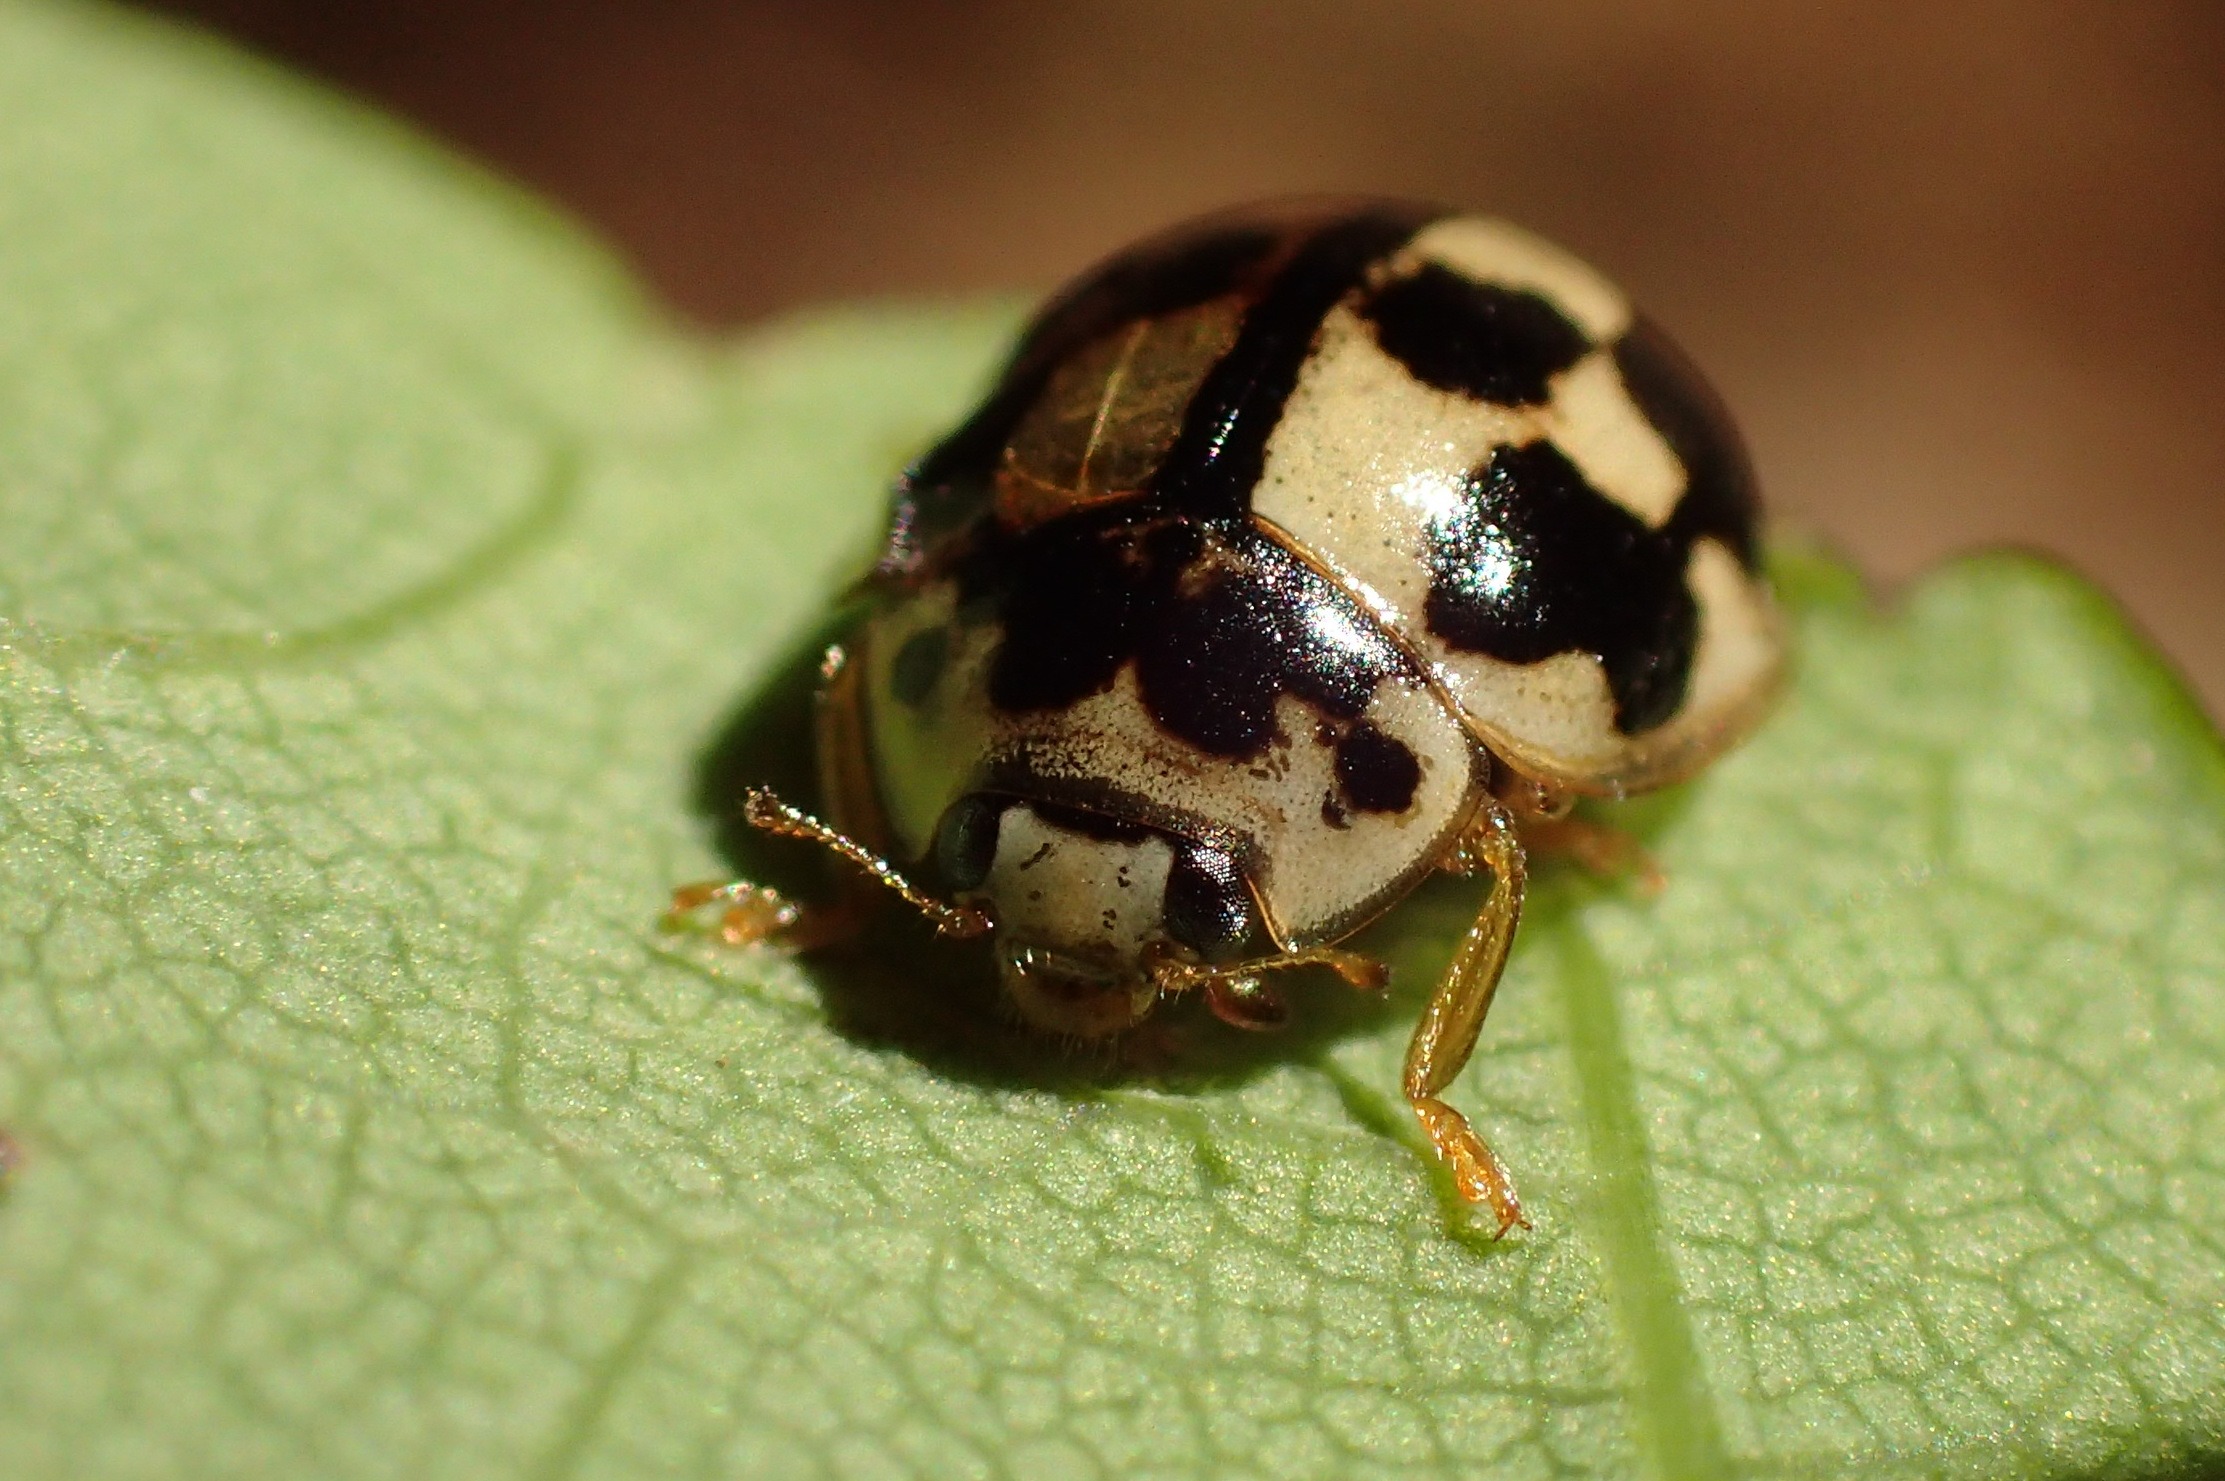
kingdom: Animalia
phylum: Arthropoda
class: Insecta
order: Coleoptera
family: Coccinellidae
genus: Propylaea
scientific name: Propylaea quatuordecimpunctata
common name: Skakbræt
